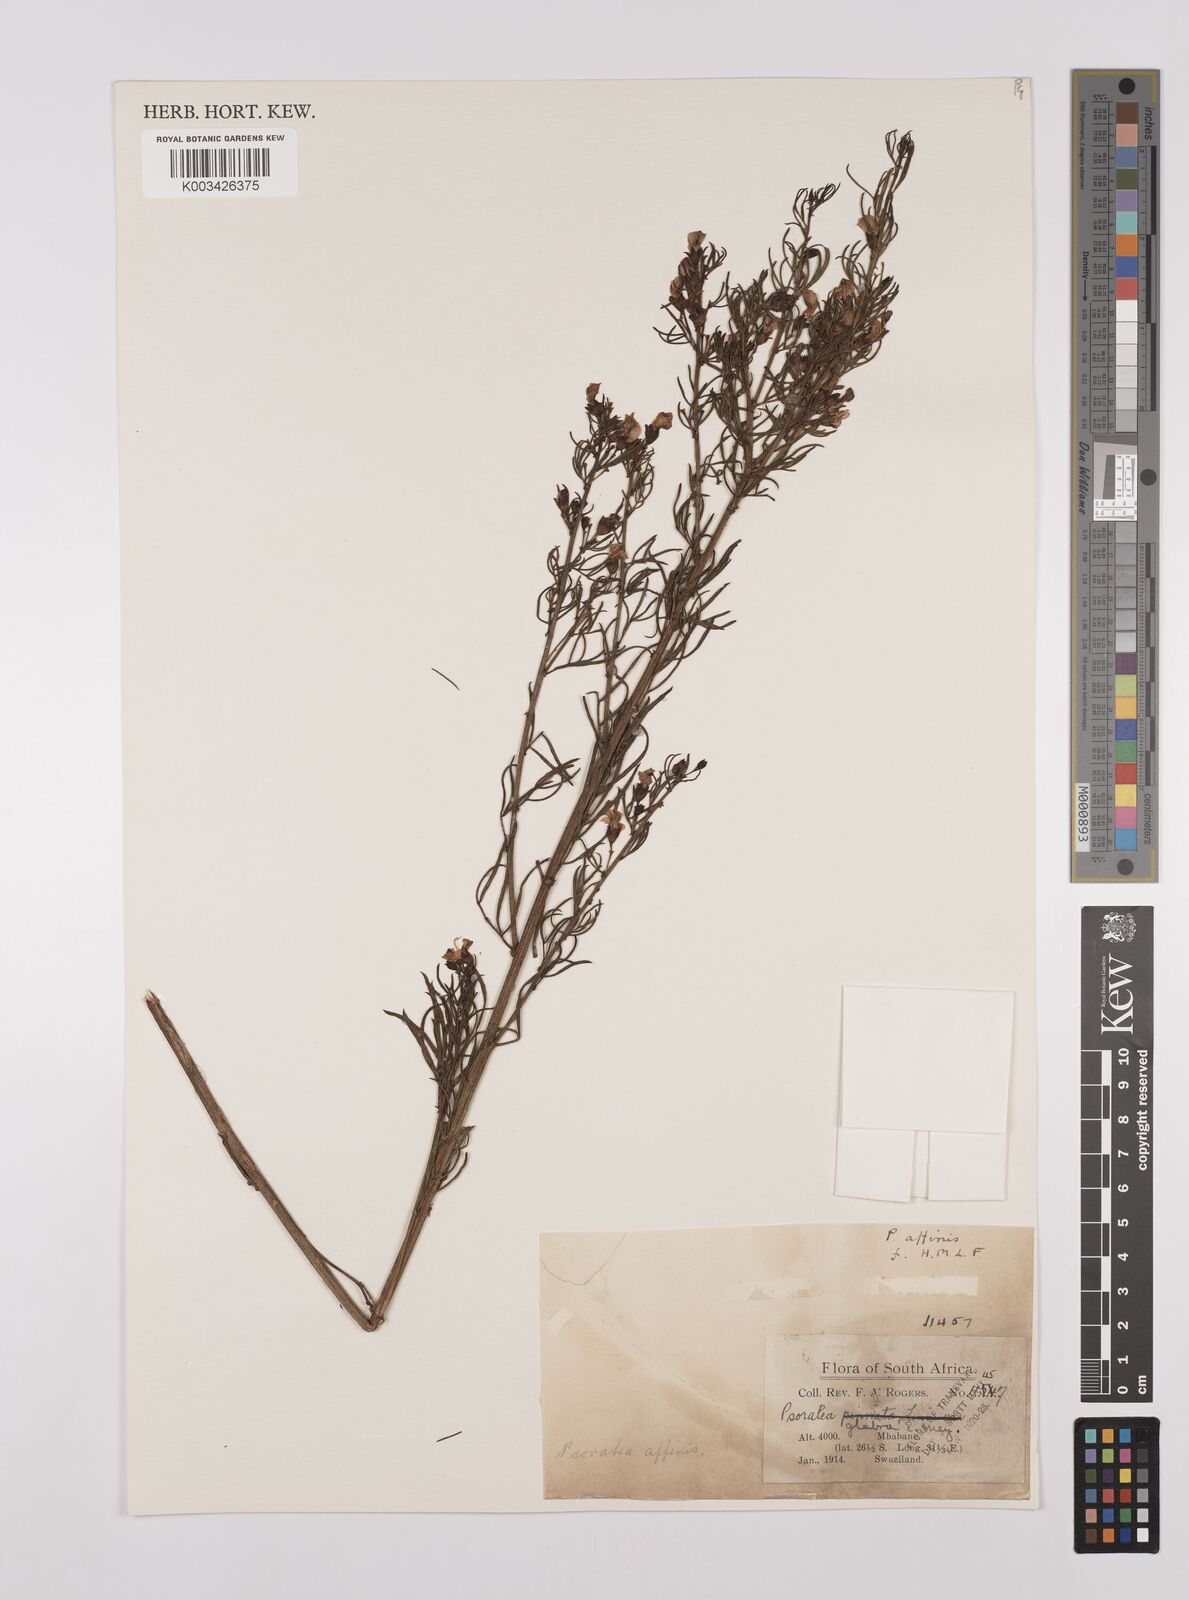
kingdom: Plantae
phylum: Tracheophyta
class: Magnoliopsida
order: Fabales
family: Fabaceae
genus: Psoralea
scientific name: Psoralea rhizotoma
